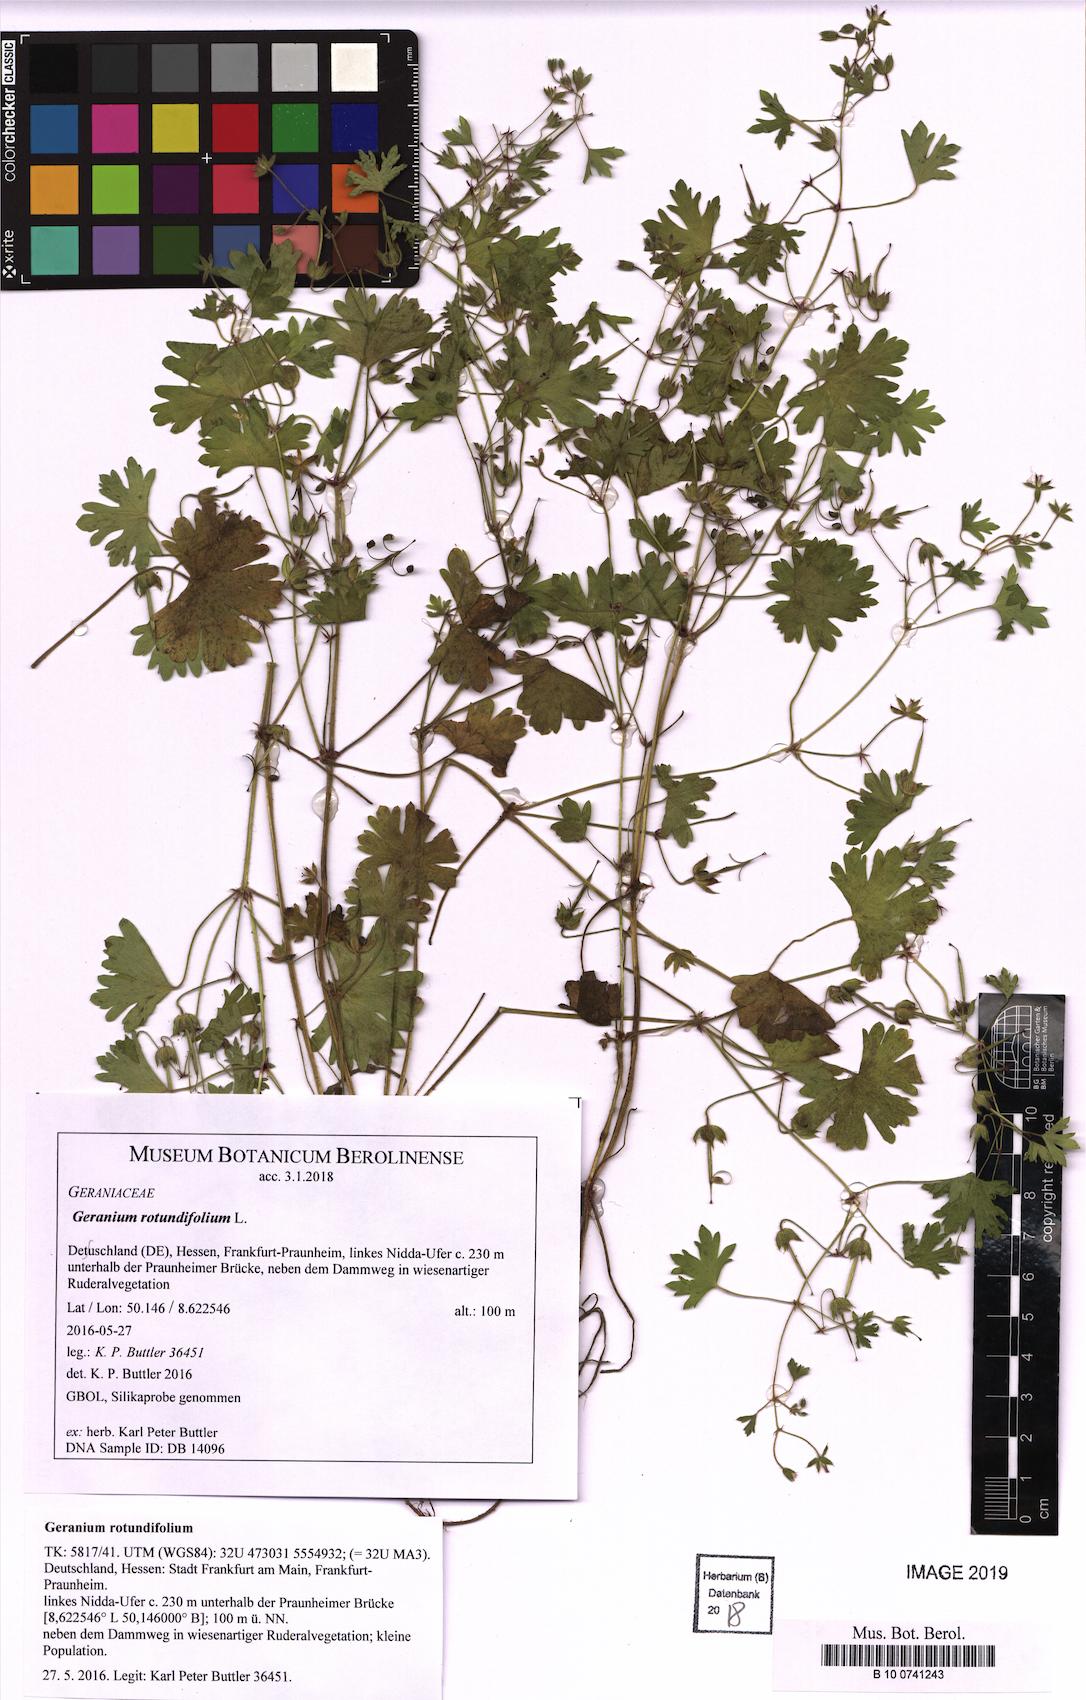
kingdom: Plantae
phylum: Tracheophyta
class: Magnoliopsida
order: Geraniales
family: Geraniaceae
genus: Geranium
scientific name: Geranium rotundifolium
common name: Round-leaved crane's-bill
